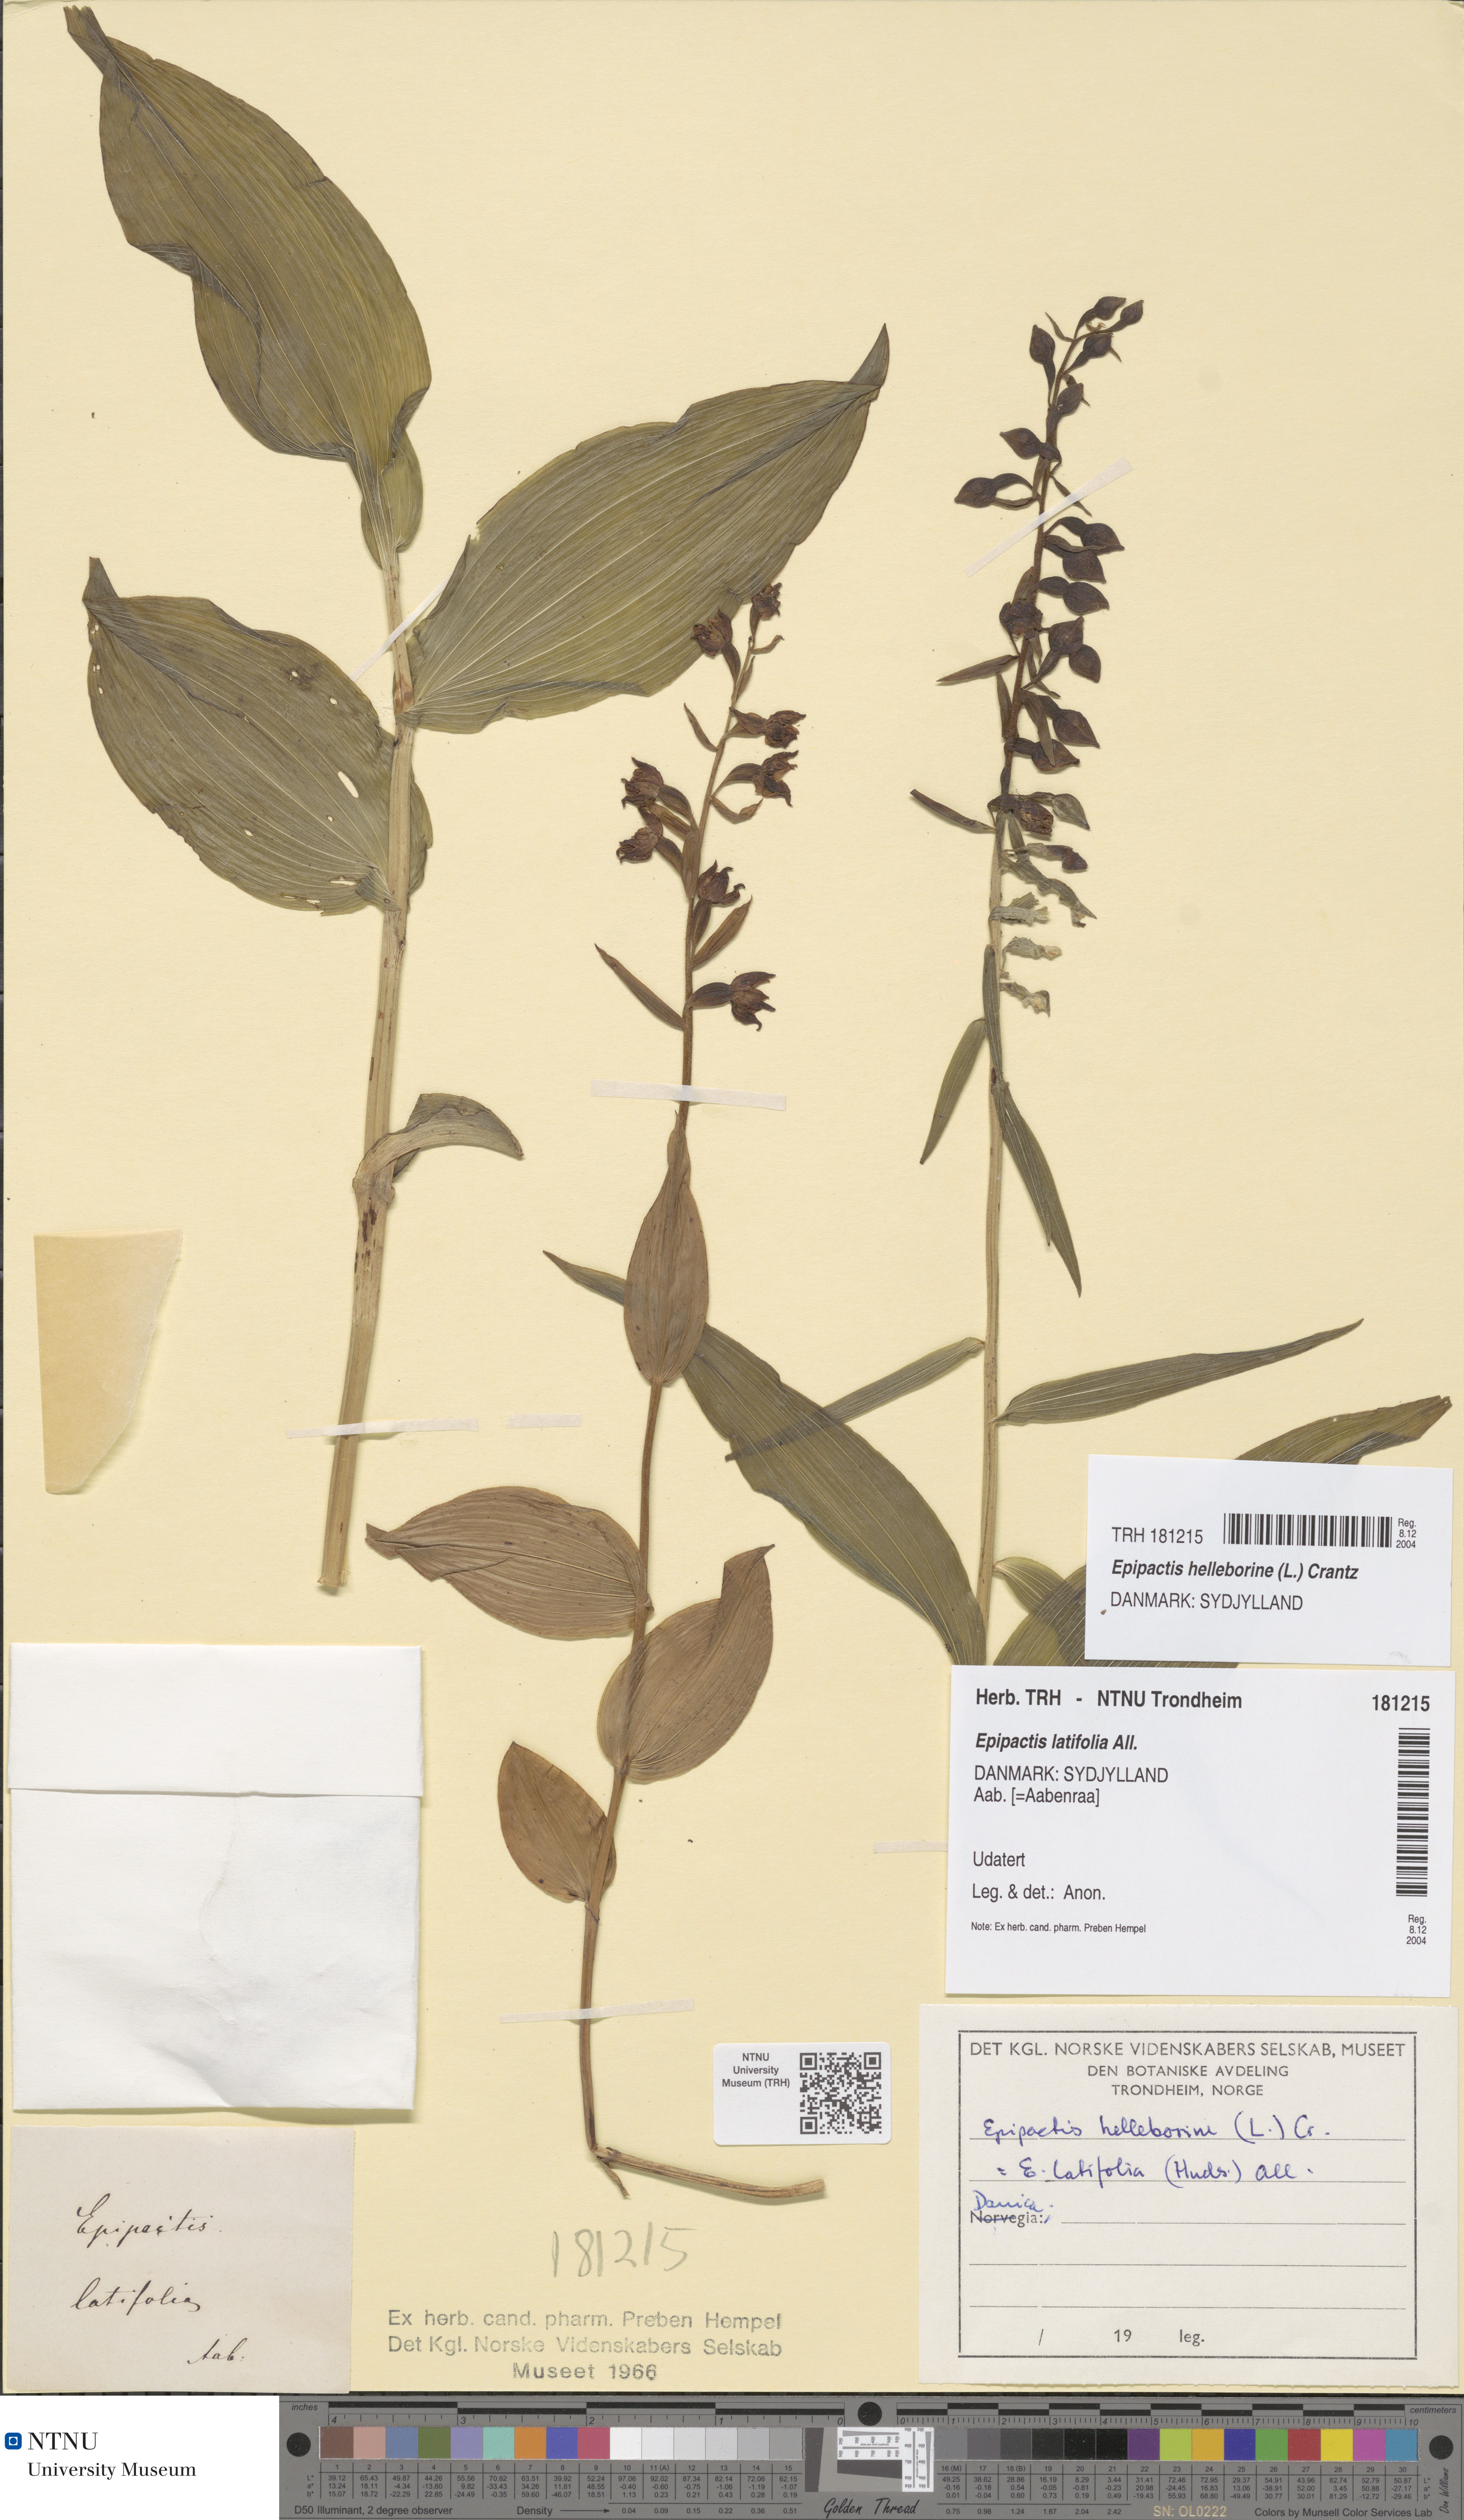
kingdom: Plantae
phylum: Tracheophyta
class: Liliopsida
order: Asparagales
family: Orchidaceae
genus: Epipactis
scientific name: Epipactis helleborine
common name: Broad-leaved helleborine
